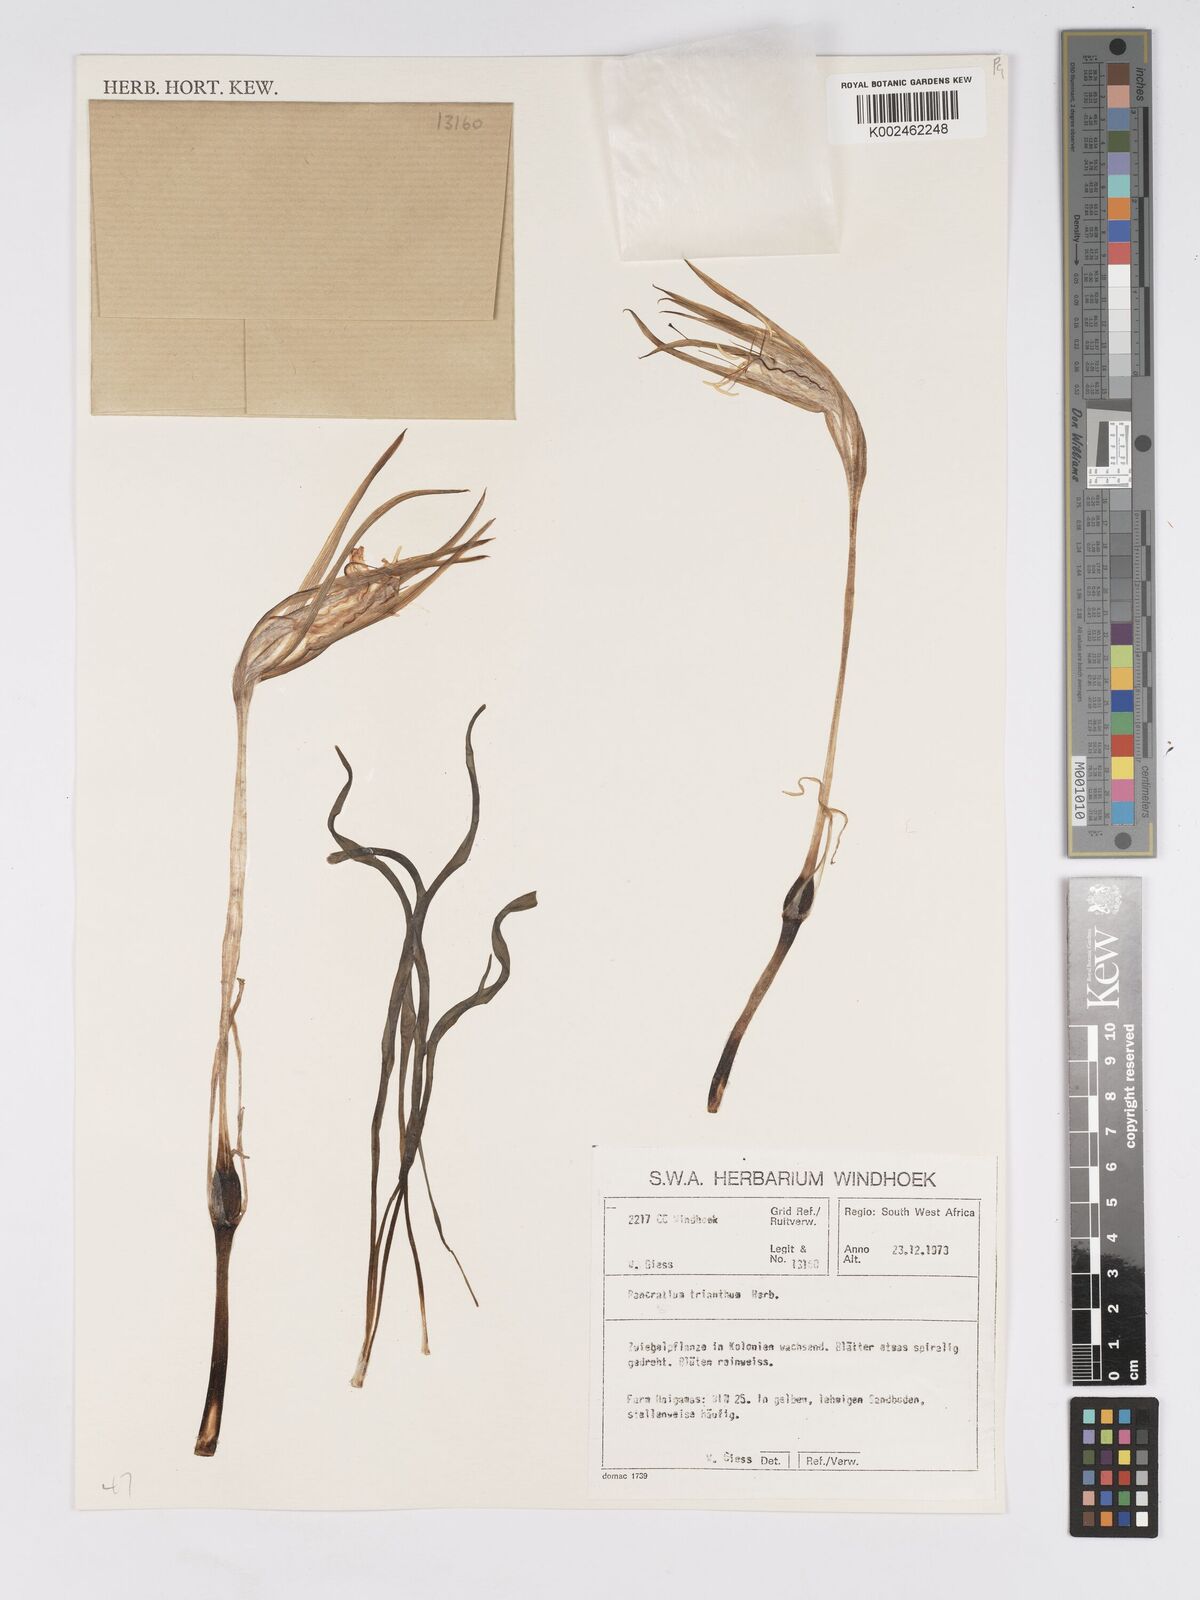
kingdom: Plantae
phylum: Tracheophyta
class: Liliopsida
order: Asparagales
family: Amaryllidaceae
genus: Pancratium
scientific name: Pancratium tenuifolium
